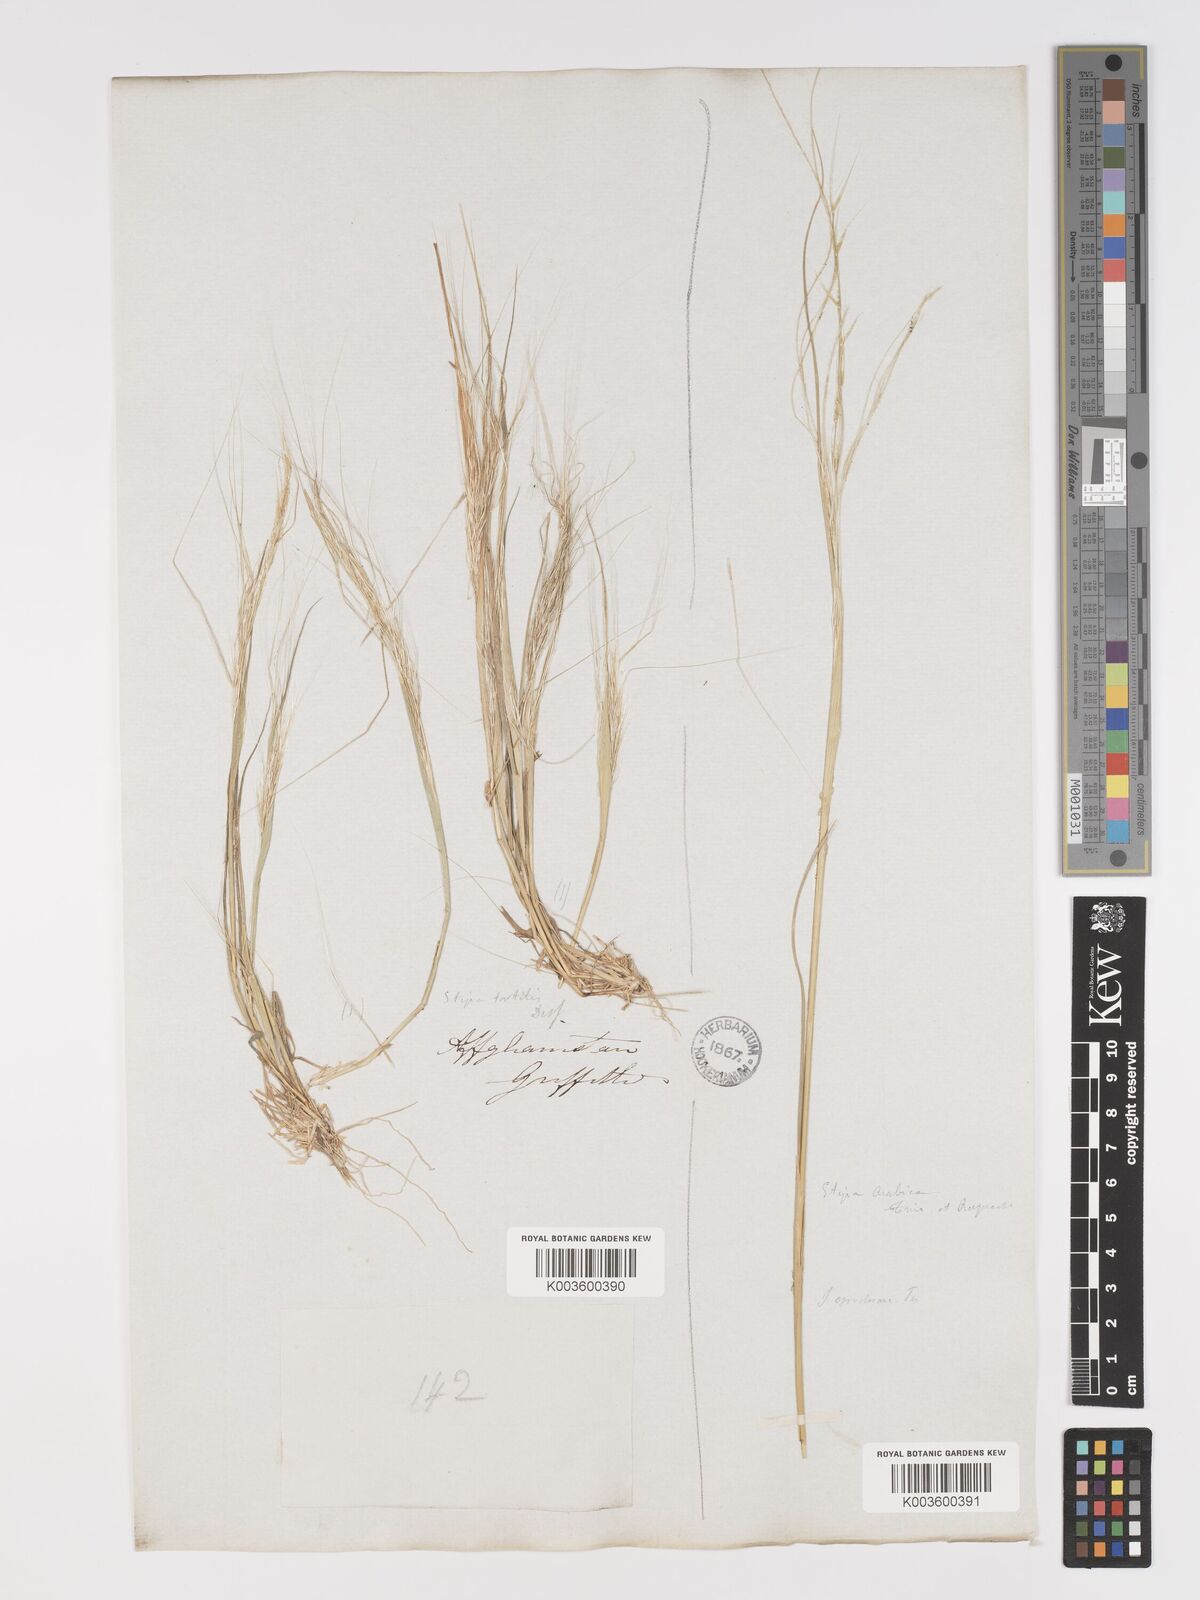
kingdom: Plantae
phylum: Tracheophyta
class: Liliopsida
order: Poales
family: Poaceae
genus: Stipellula
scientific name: Stipellula capensis
